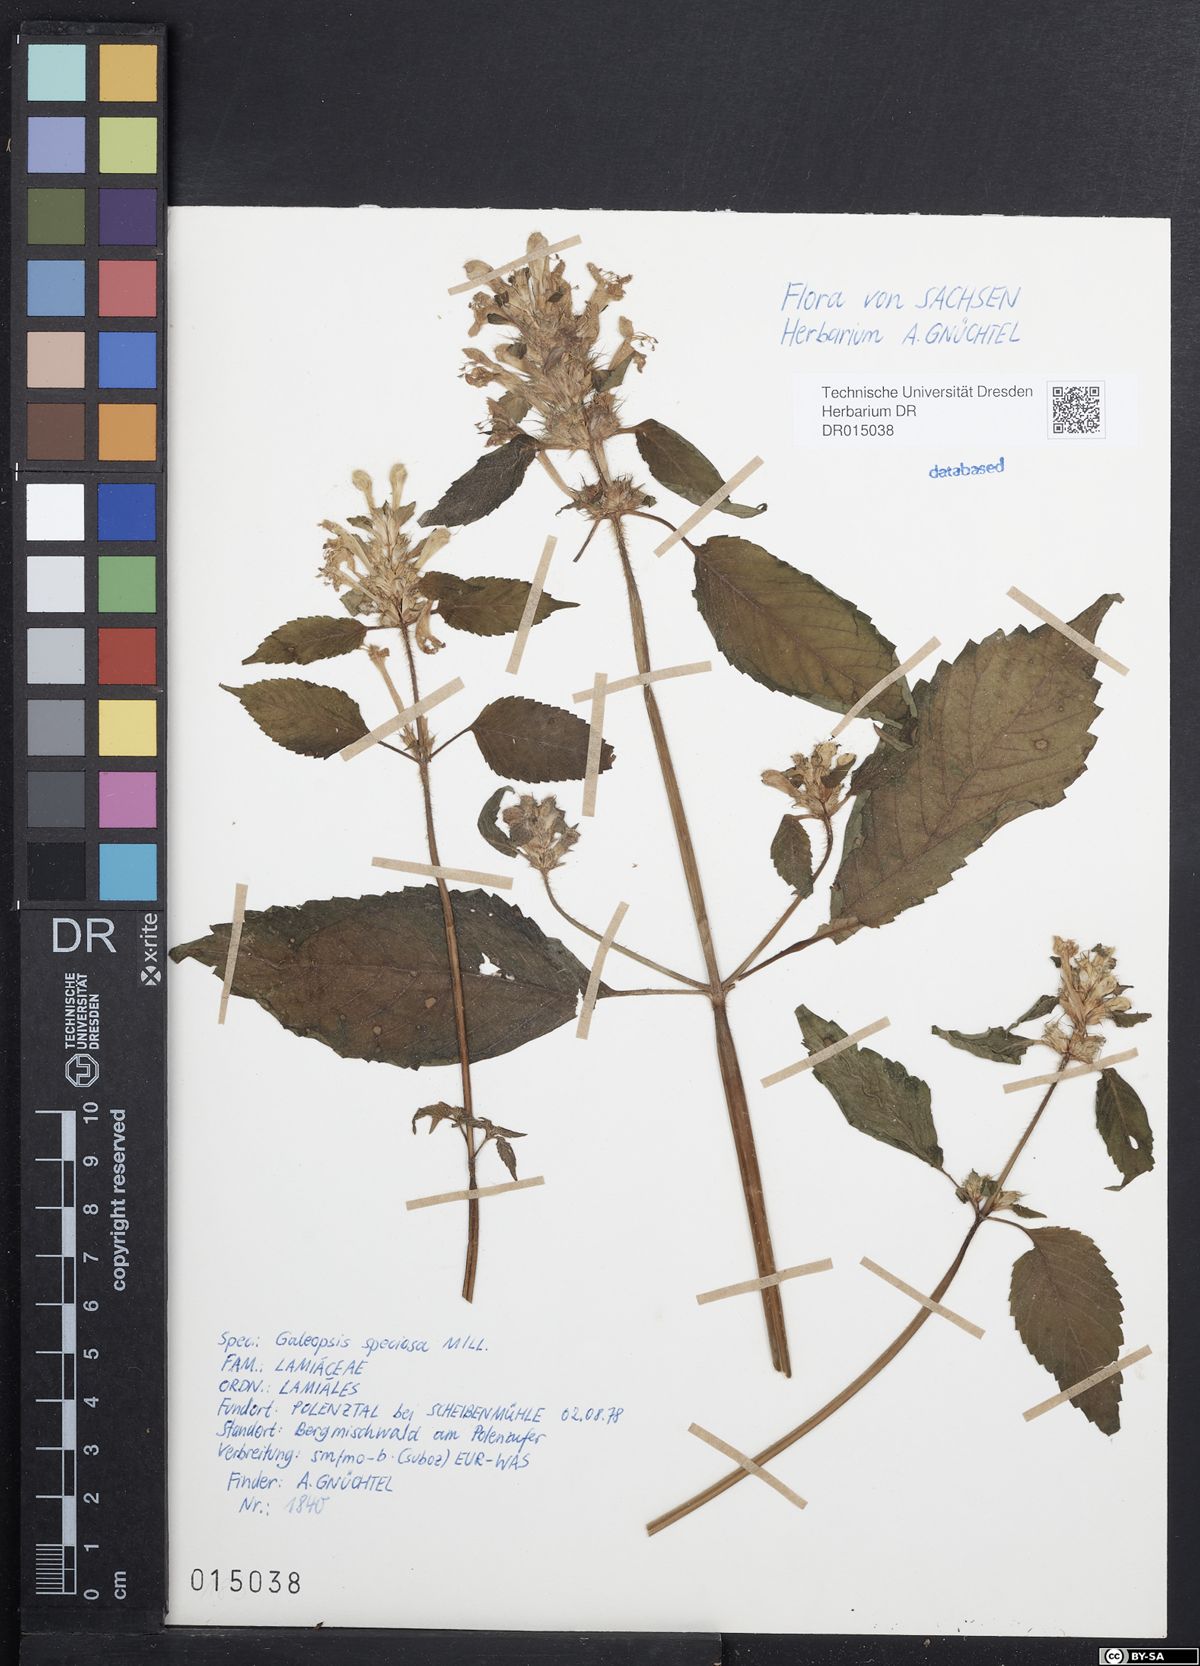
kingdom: Plantae
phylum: Tracheophyta
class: Magnoliopsida
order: Lamiales
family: Lamiaceae
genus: Galeopsis
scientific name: Galeopsis speciosa
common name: Large-flowered hemp-nettle
